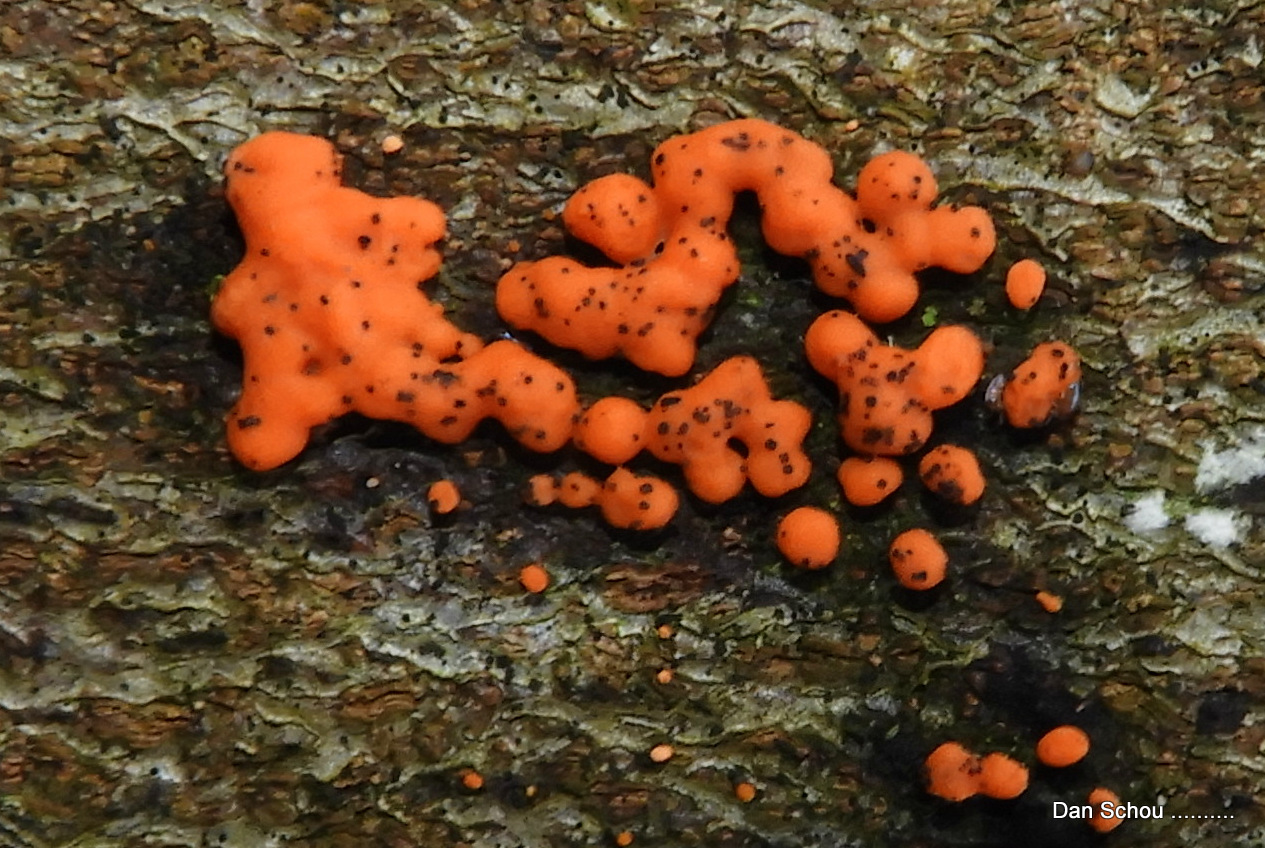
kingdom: Fungi
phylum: Basidiomycota
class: Dacrymycetes
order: Dacrymycetales
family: Dacrymycetaceae
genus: Dacrymyces
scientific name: Dacrymyces stillatus
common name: almindelig tåresvamp
